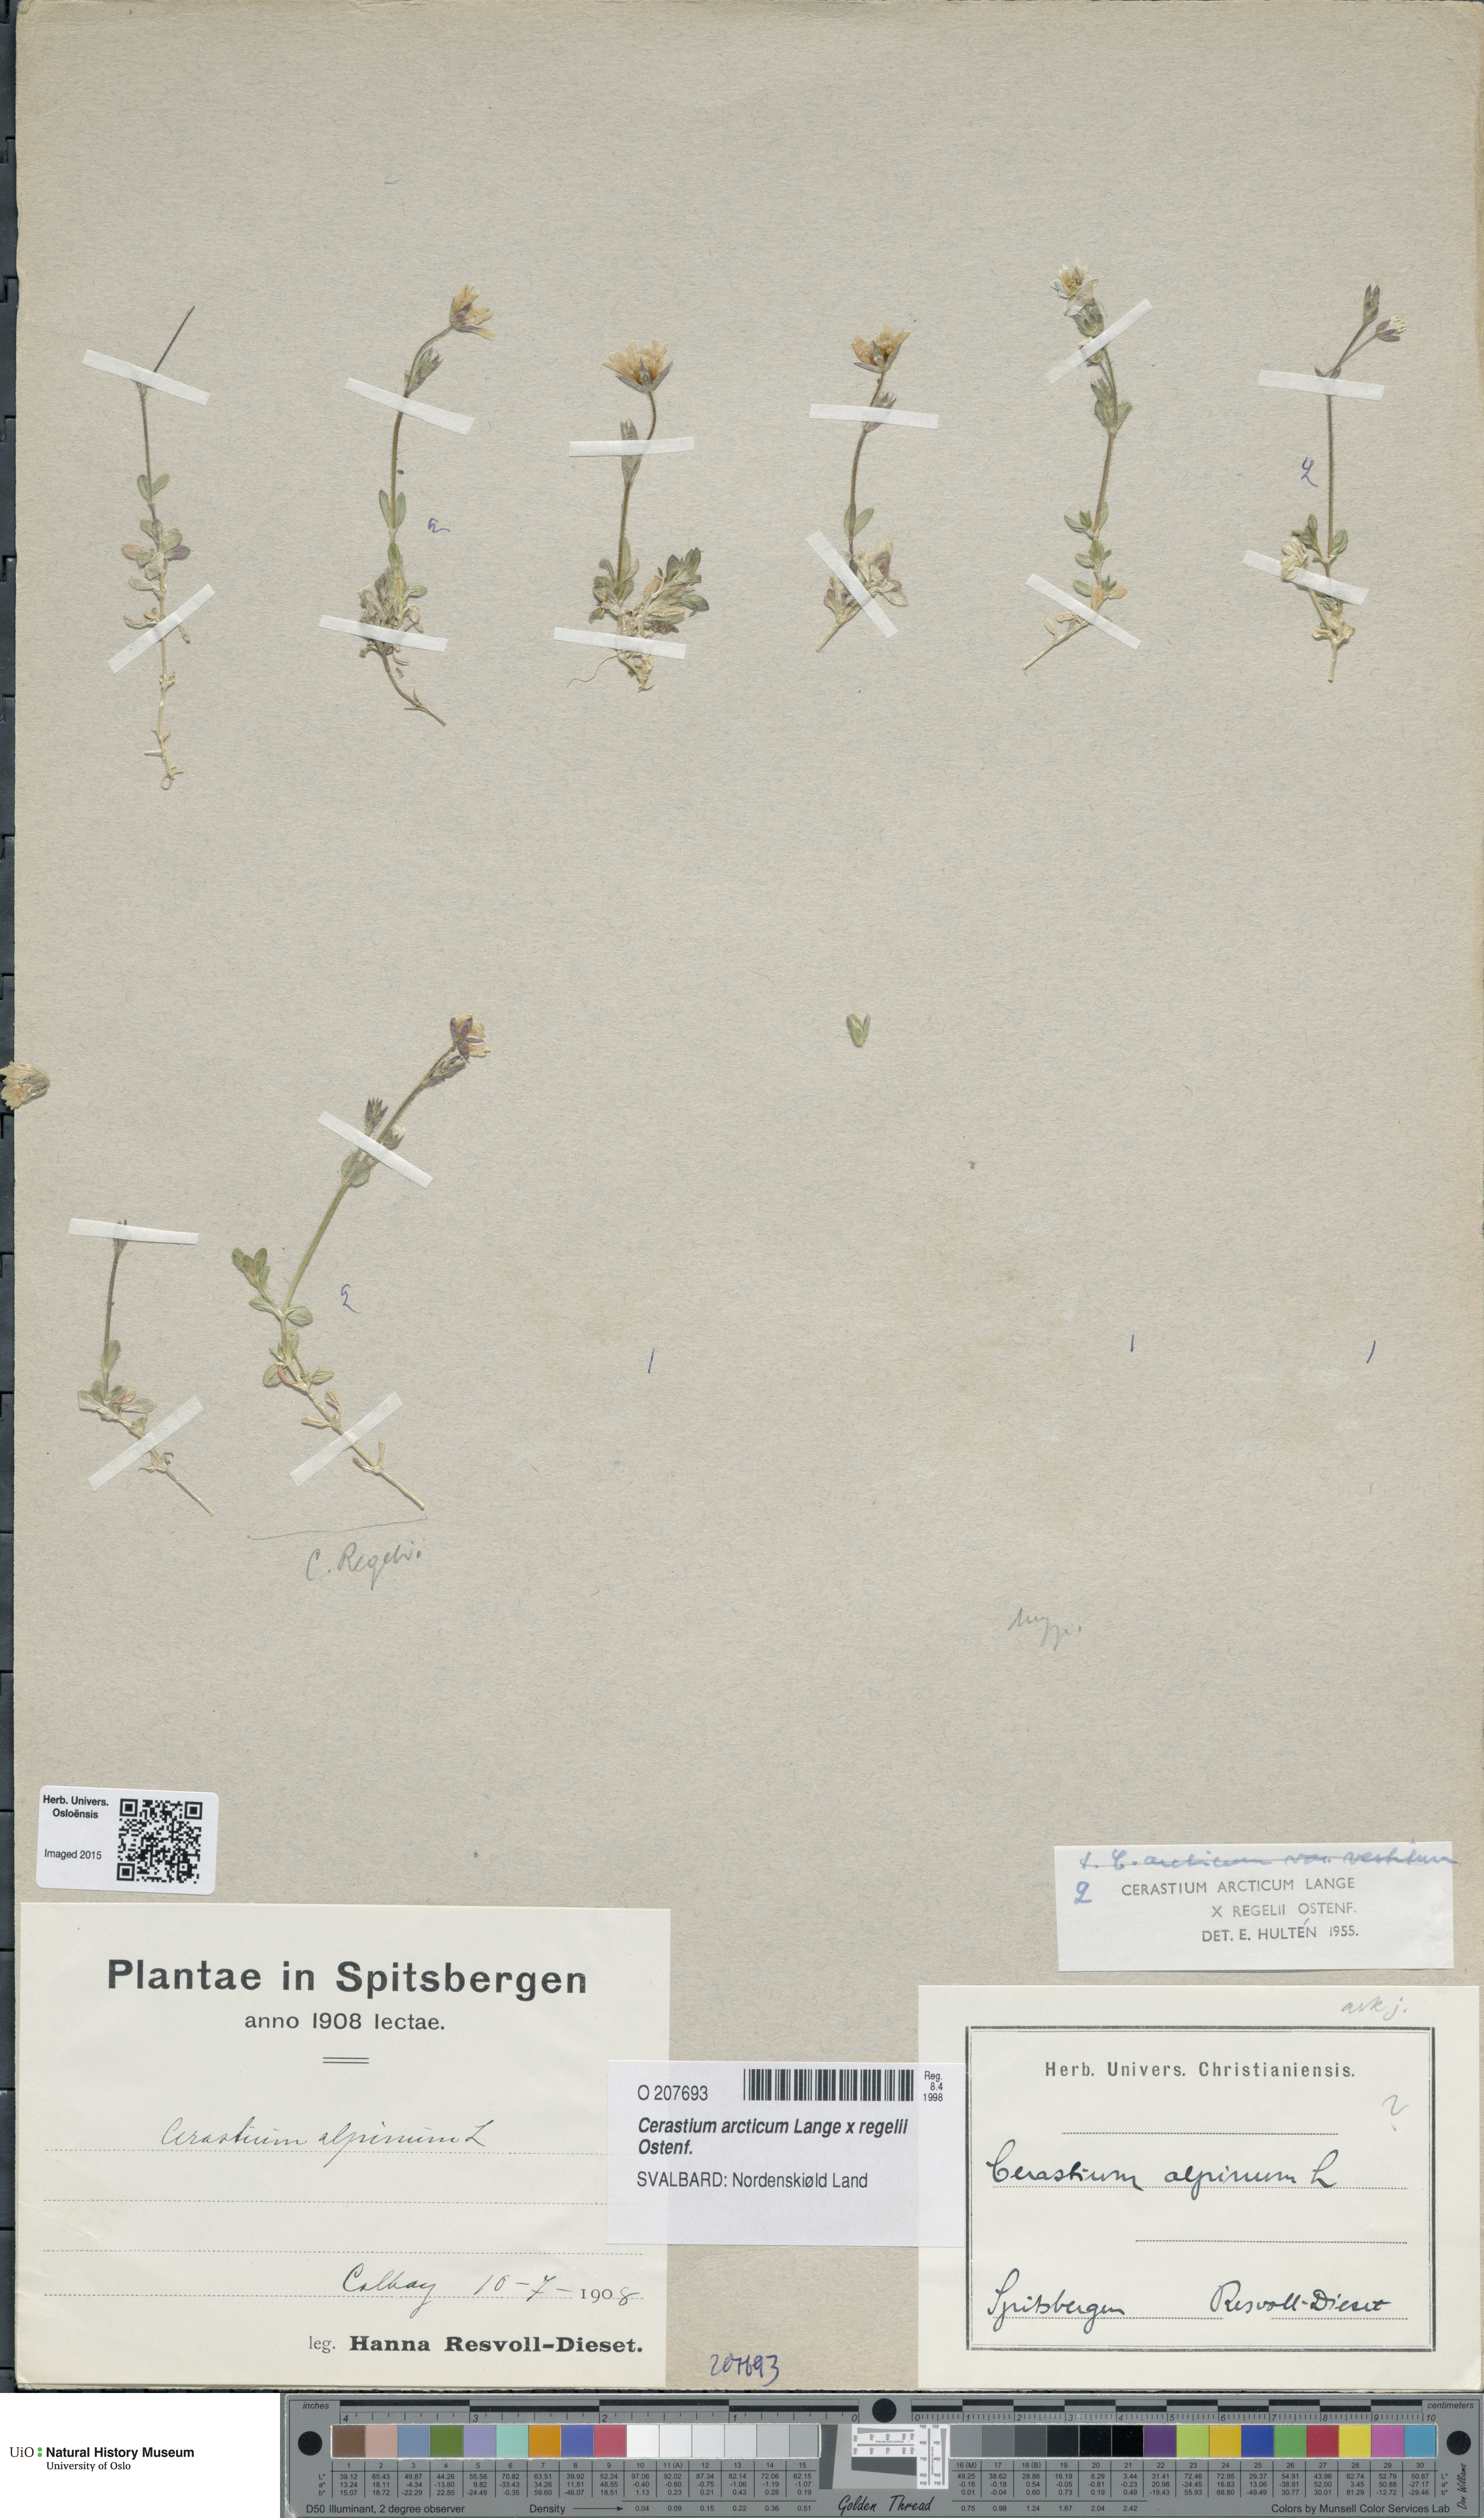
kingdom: Plantae
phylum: Tracheophyta
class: Magnoliopsida
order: Caryophyllales
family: Caryophyllaceae
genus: Cerastium
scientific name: Cerastium
